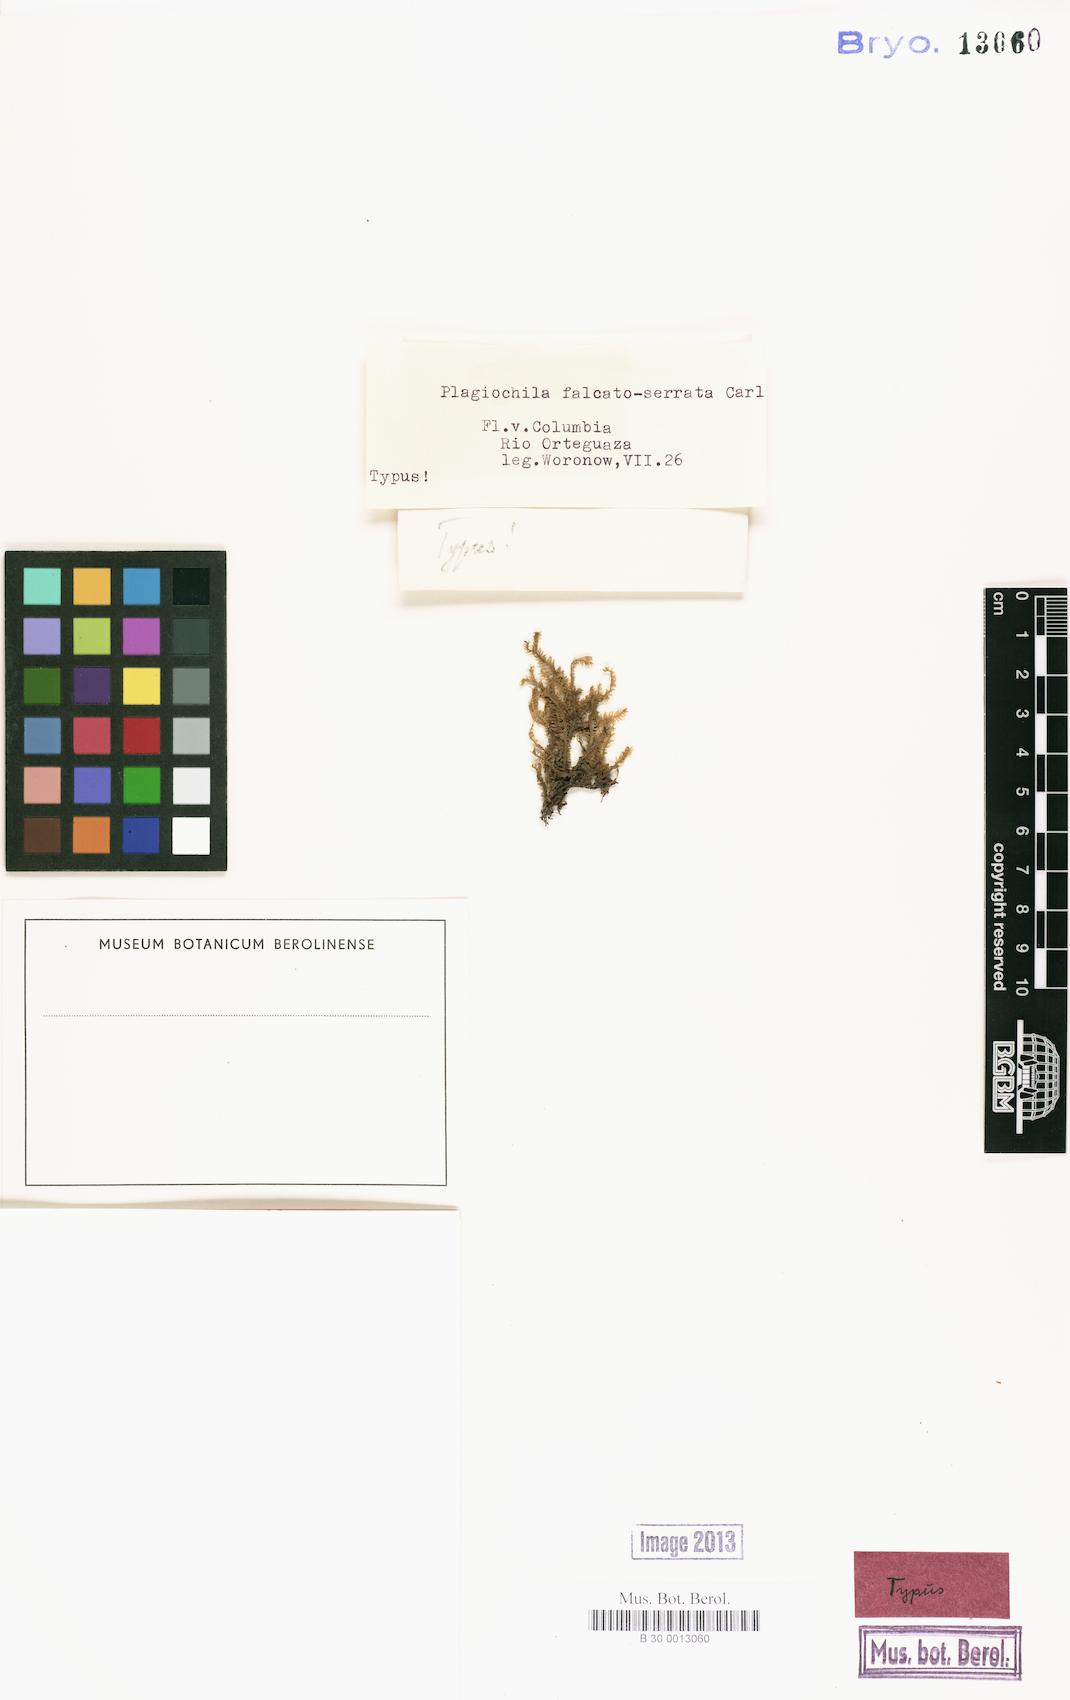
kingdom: Plantae
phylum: Marchantiophyta
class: Jungermanniopsida
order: Jungermanniales
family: Plagiochilaceae
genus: Plagiochila
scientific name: Plagiochila disticha
